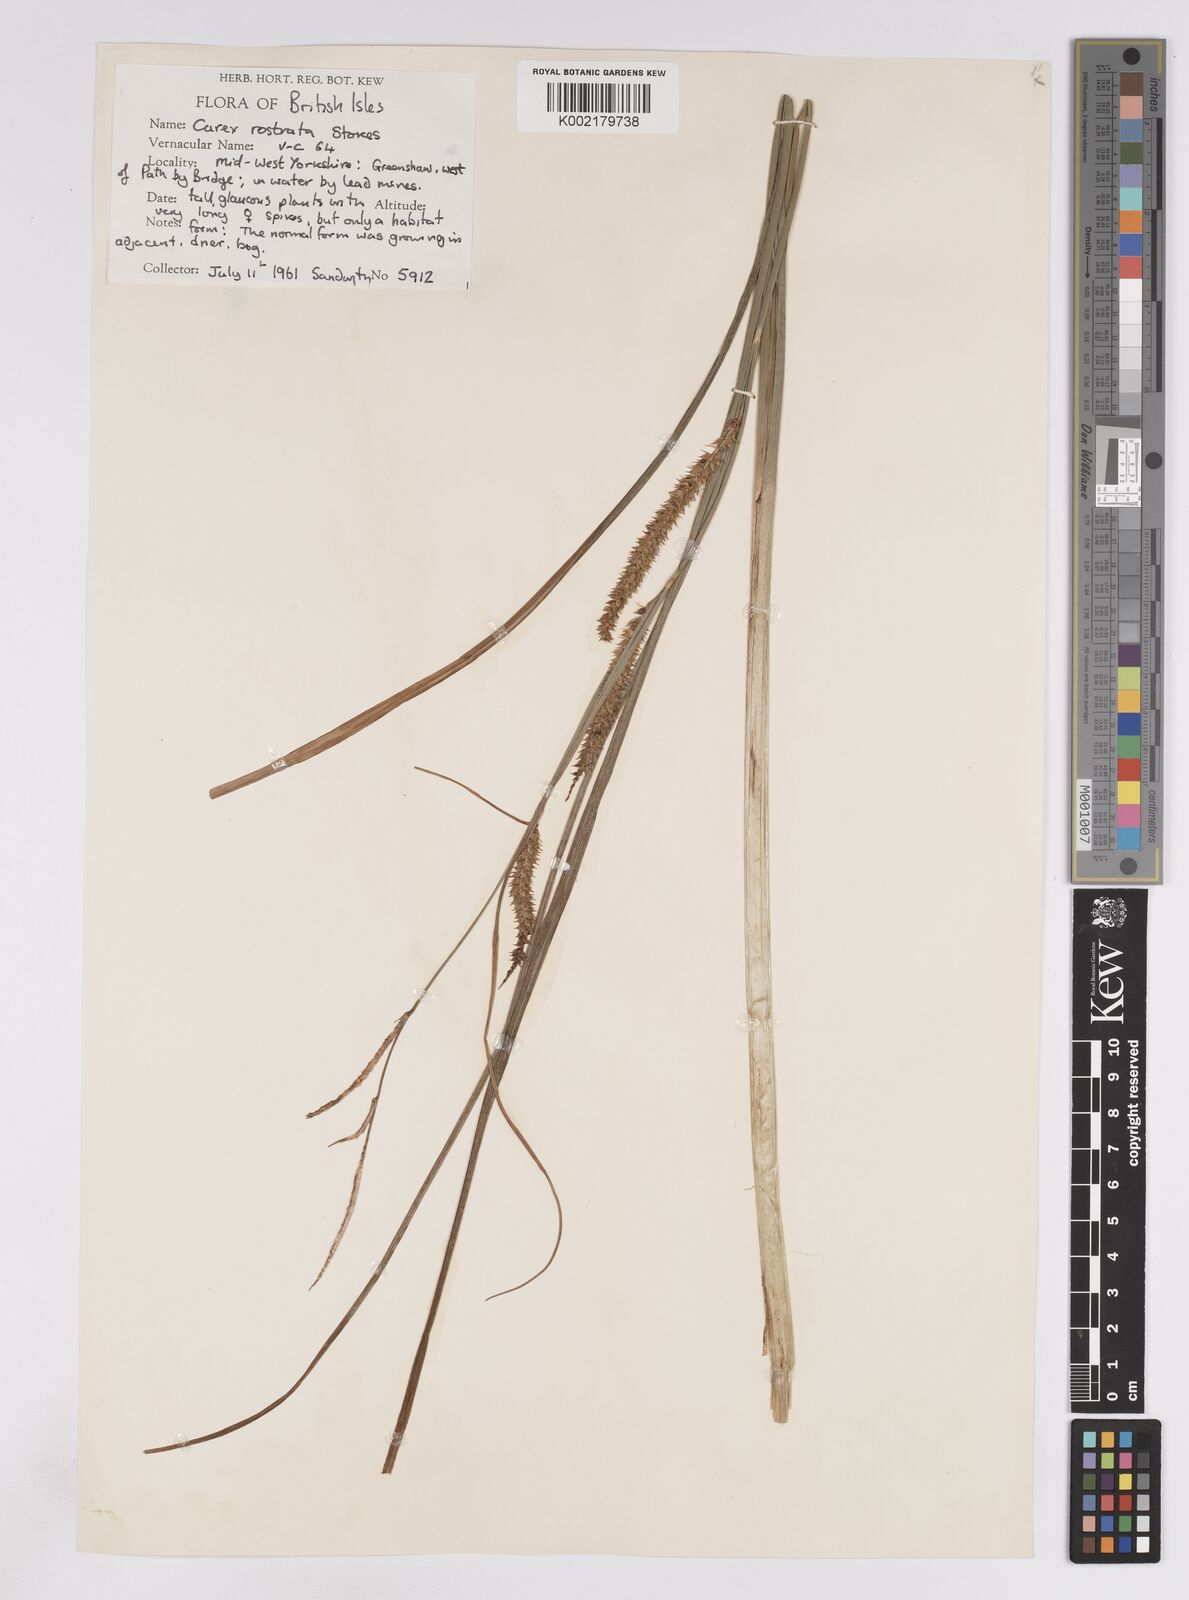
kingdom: Plantae
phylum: Tracheophyta
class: Liliopsida
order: Poales
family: Cyperaceae
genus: Carex
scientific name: Carex rostrata
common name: Bottle sedge
